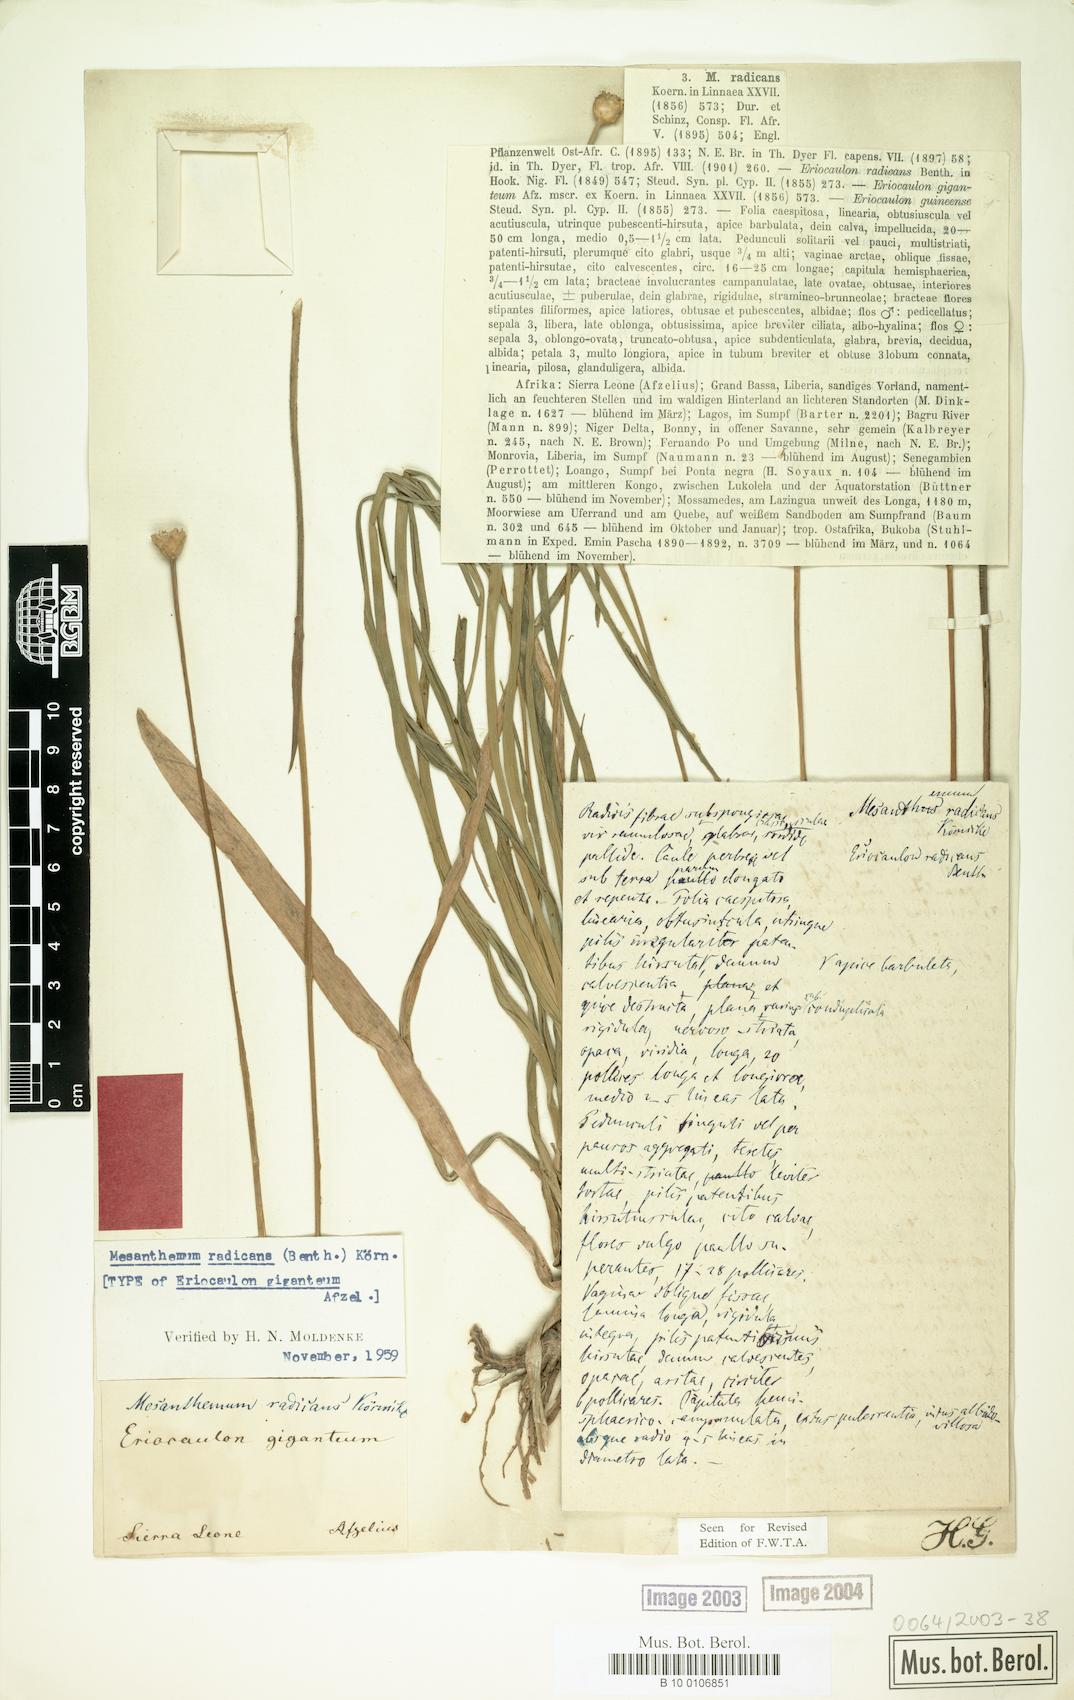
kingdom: Plantae
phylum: Tracheophyta
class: Liliopsida
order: Poales
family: Eriocaulaceae
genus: Mesanthemum
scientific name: Mesanthemum radicans
